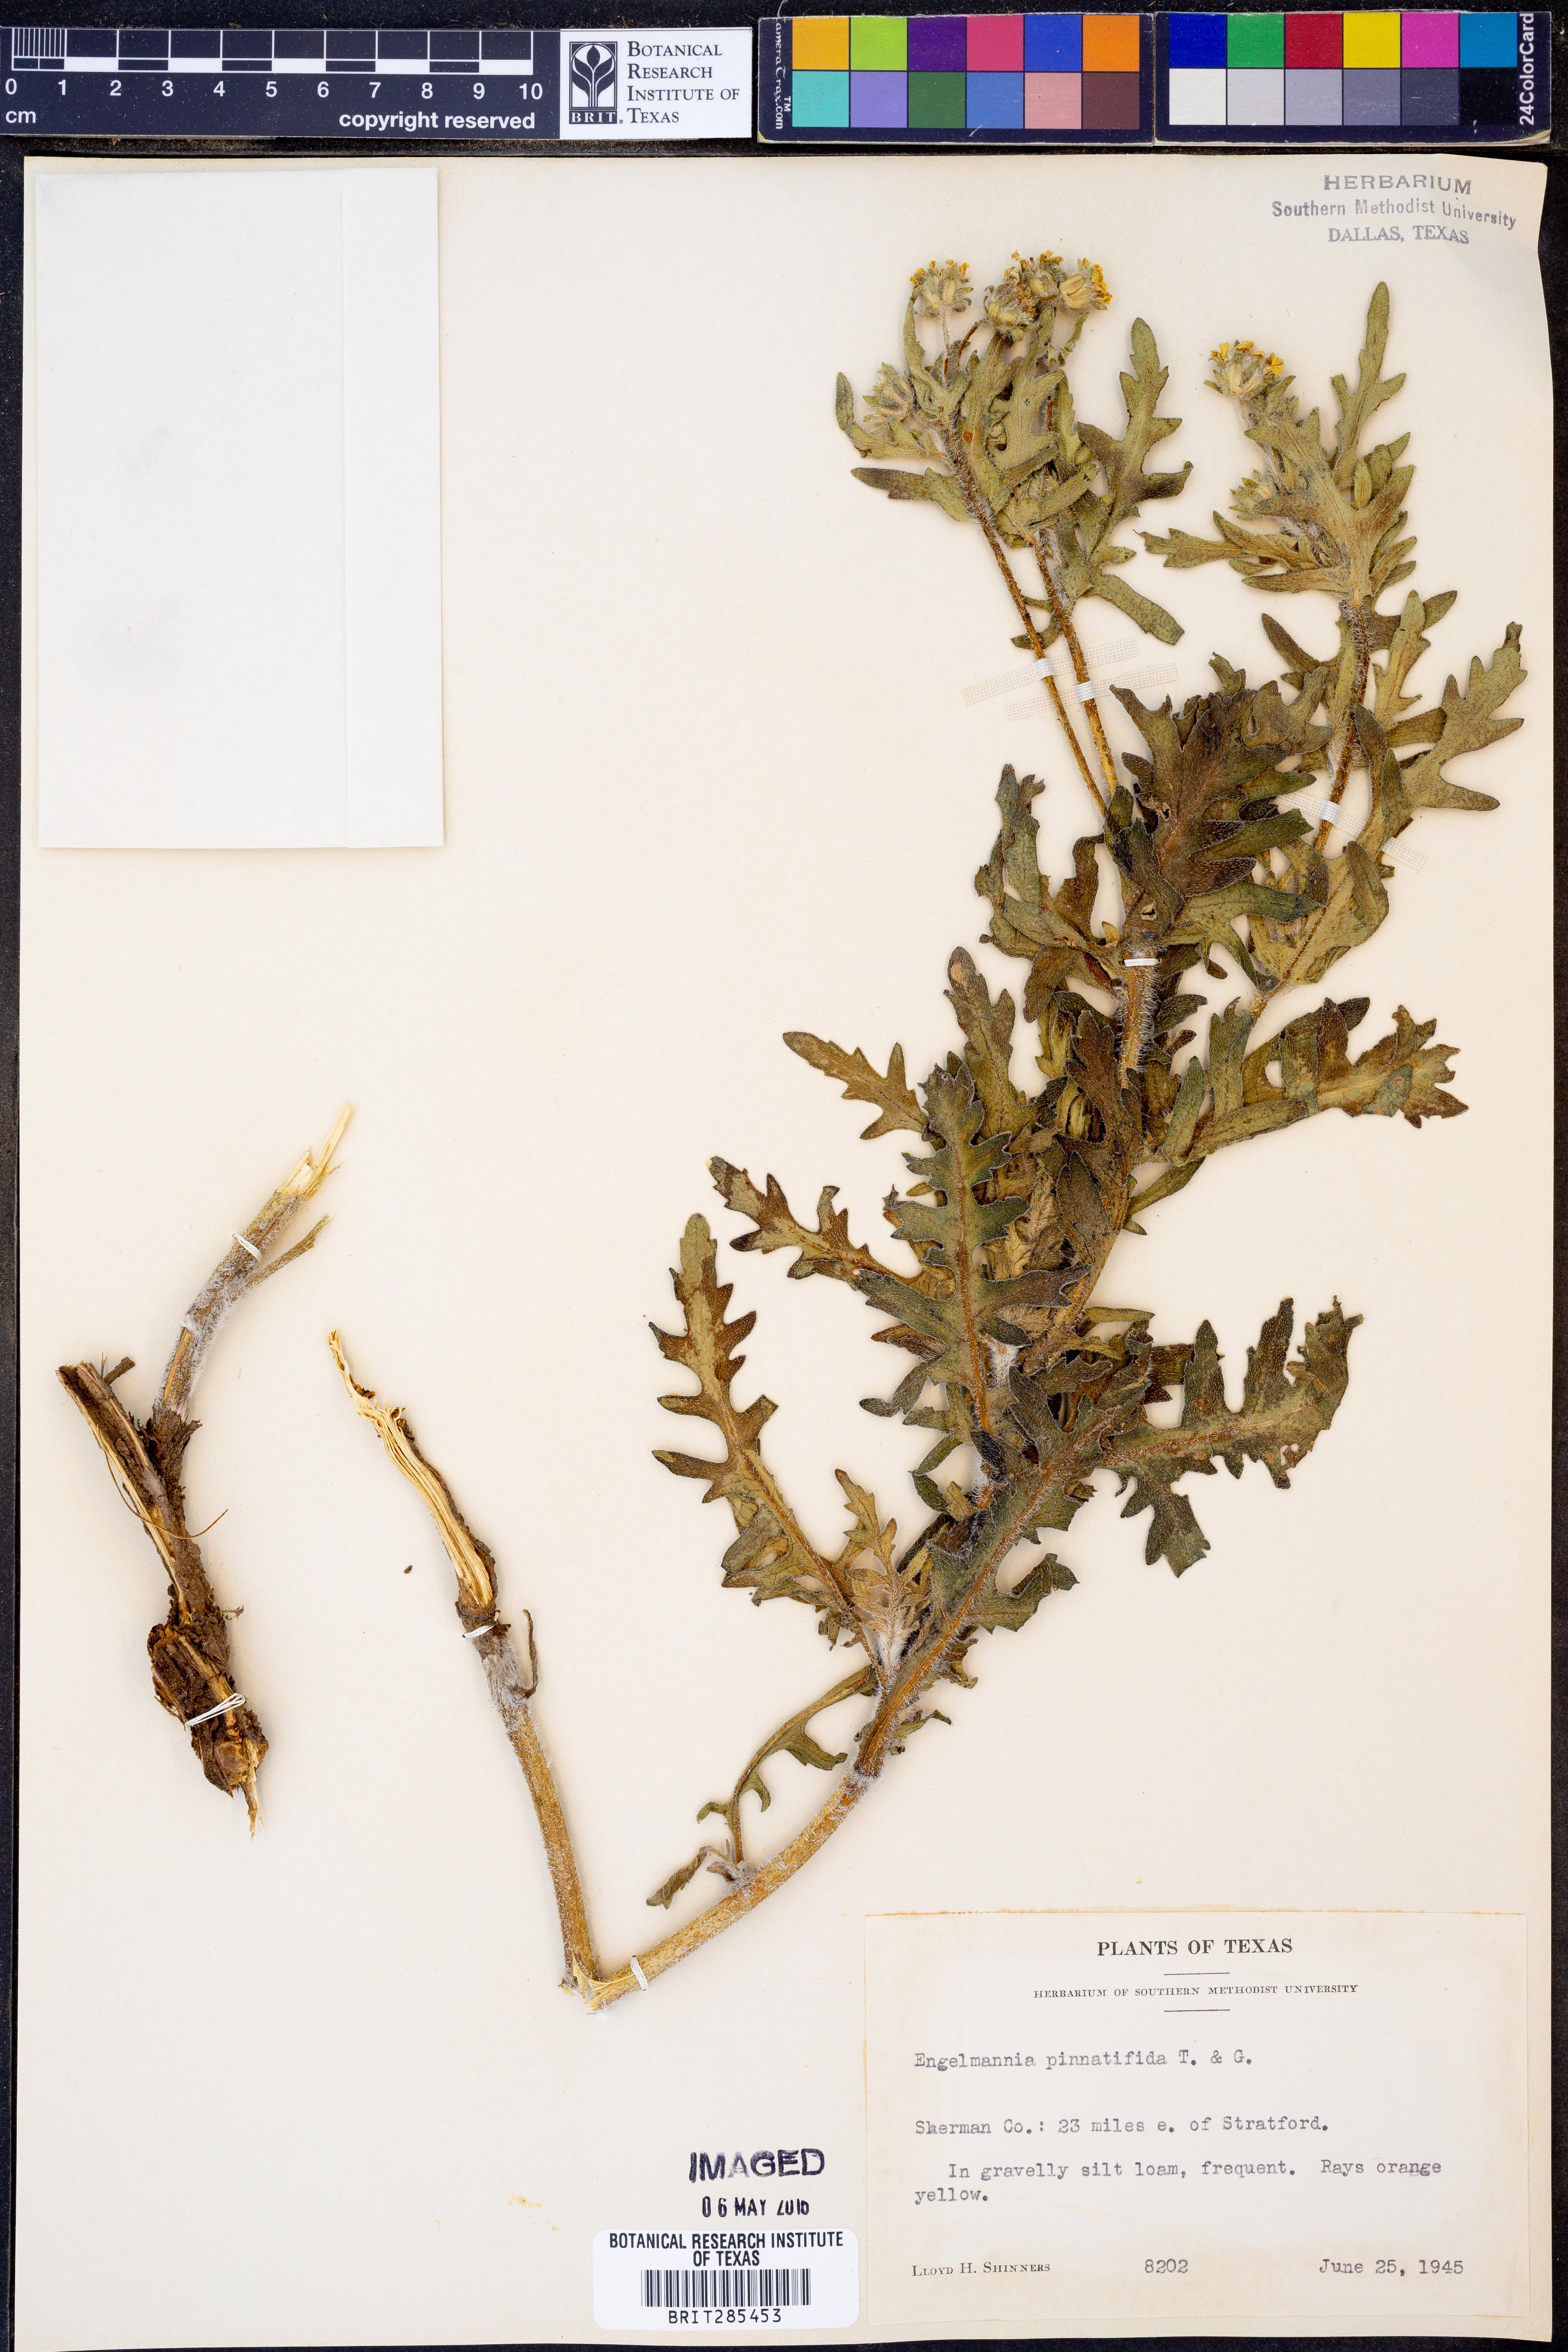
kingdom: Plantae
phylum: Tracheophyta
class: Magnoliopsida
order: Asterales
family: Asteraceae
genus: Engelmannia
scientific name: Engelmannia peristenia
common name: Engelmann's daisy
